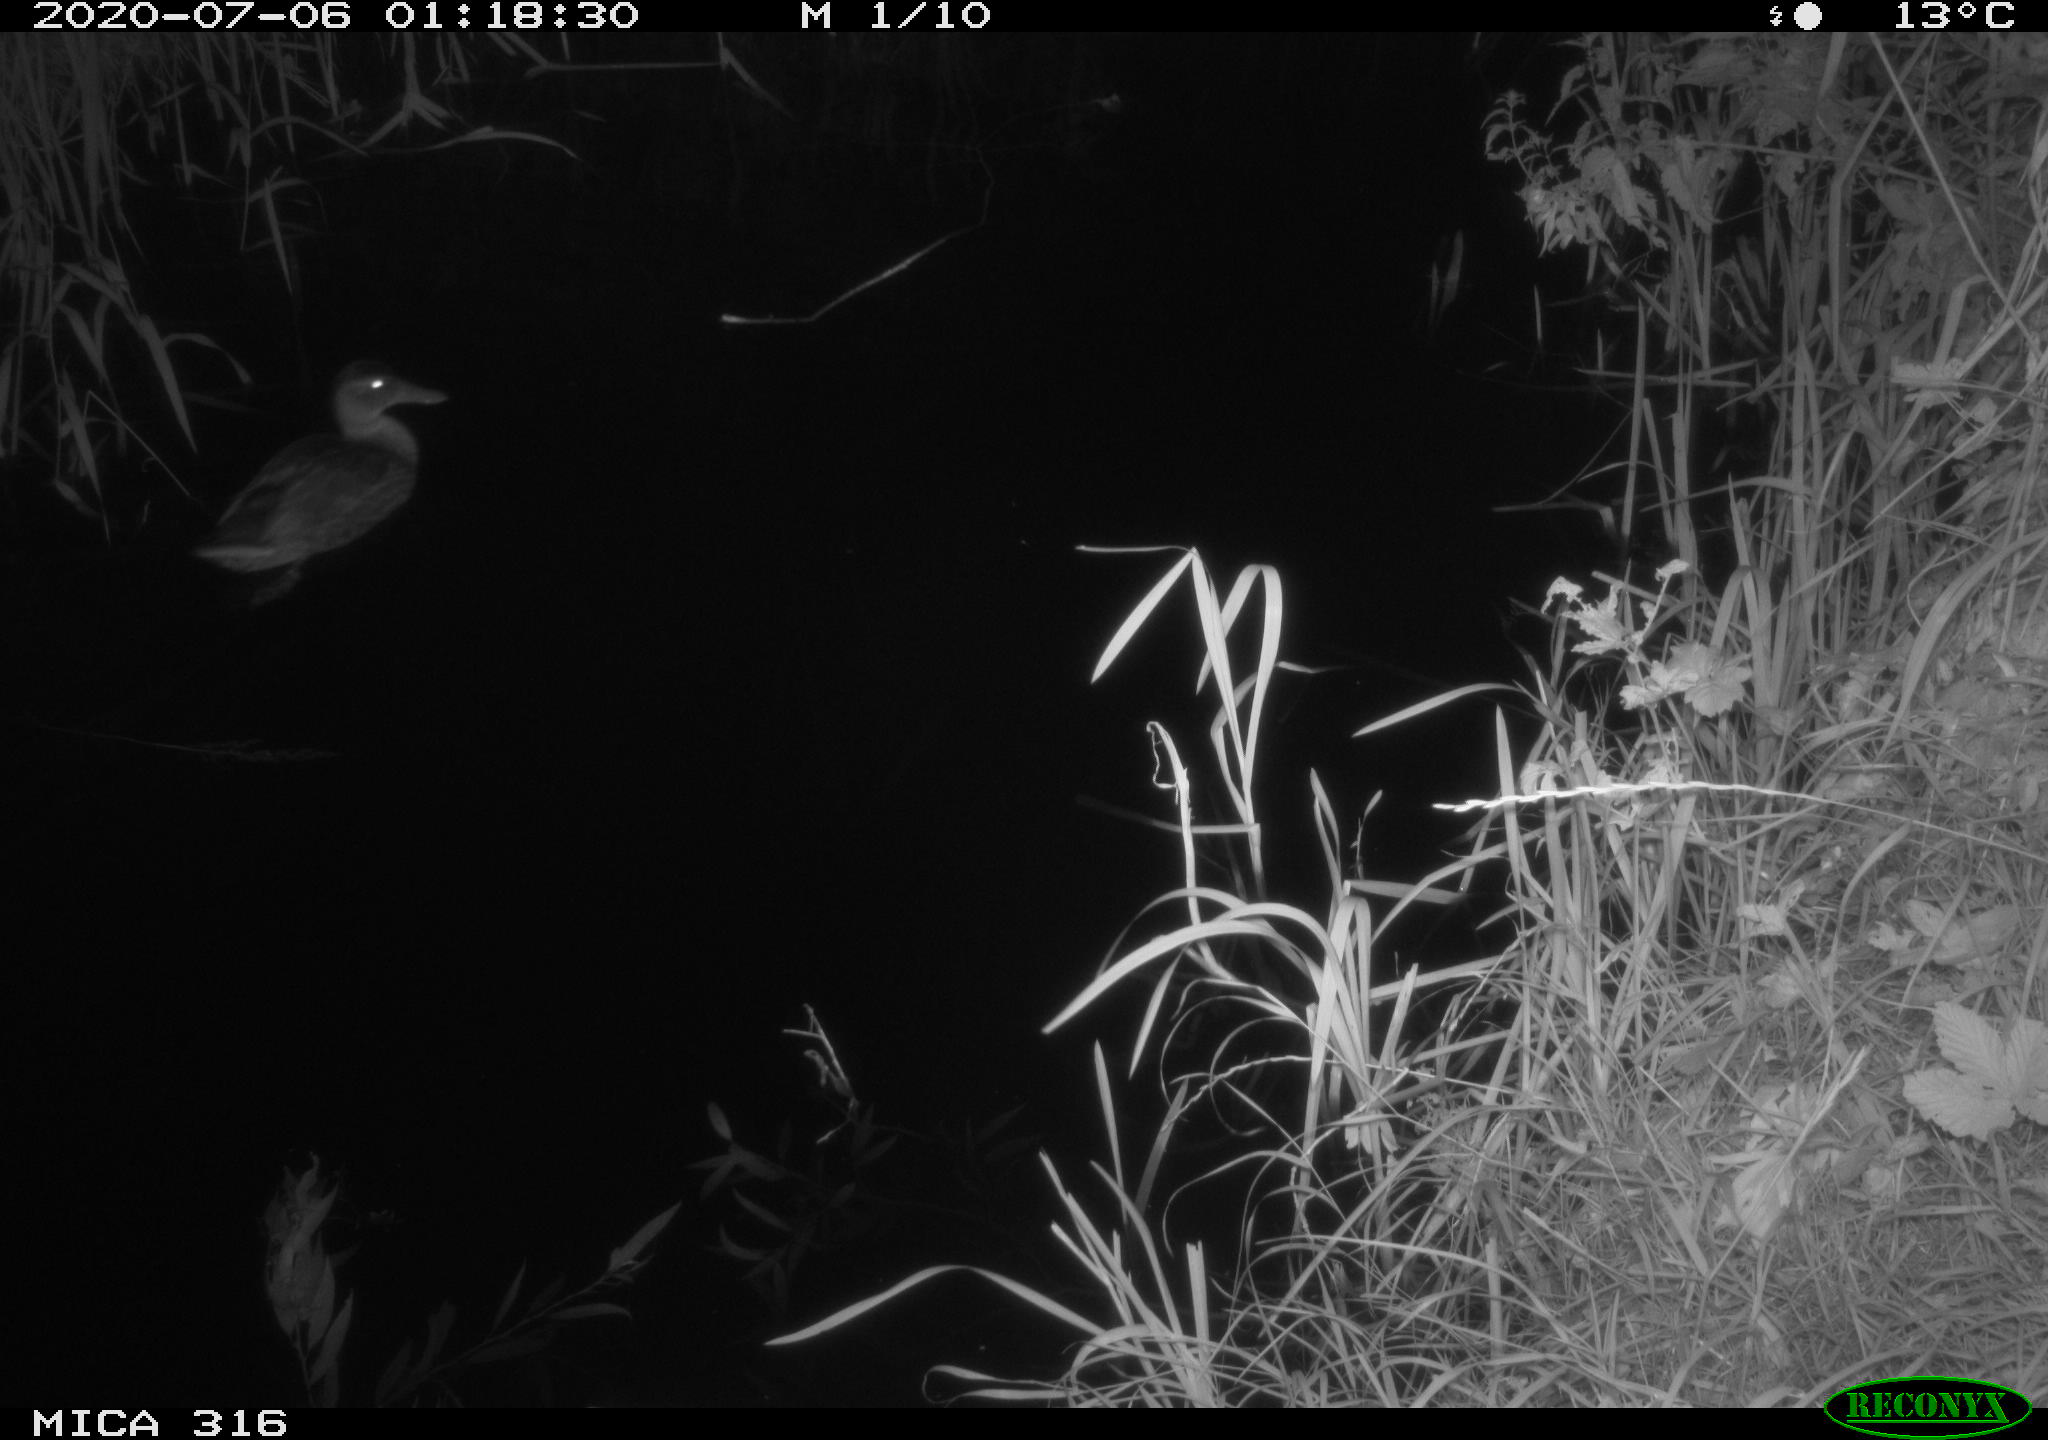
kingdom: Animalia
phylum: Chordata
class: Aves
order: Anseriformes
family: Anatidae
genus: Anas
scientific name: Anas platyrhynchos
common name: Mallard
